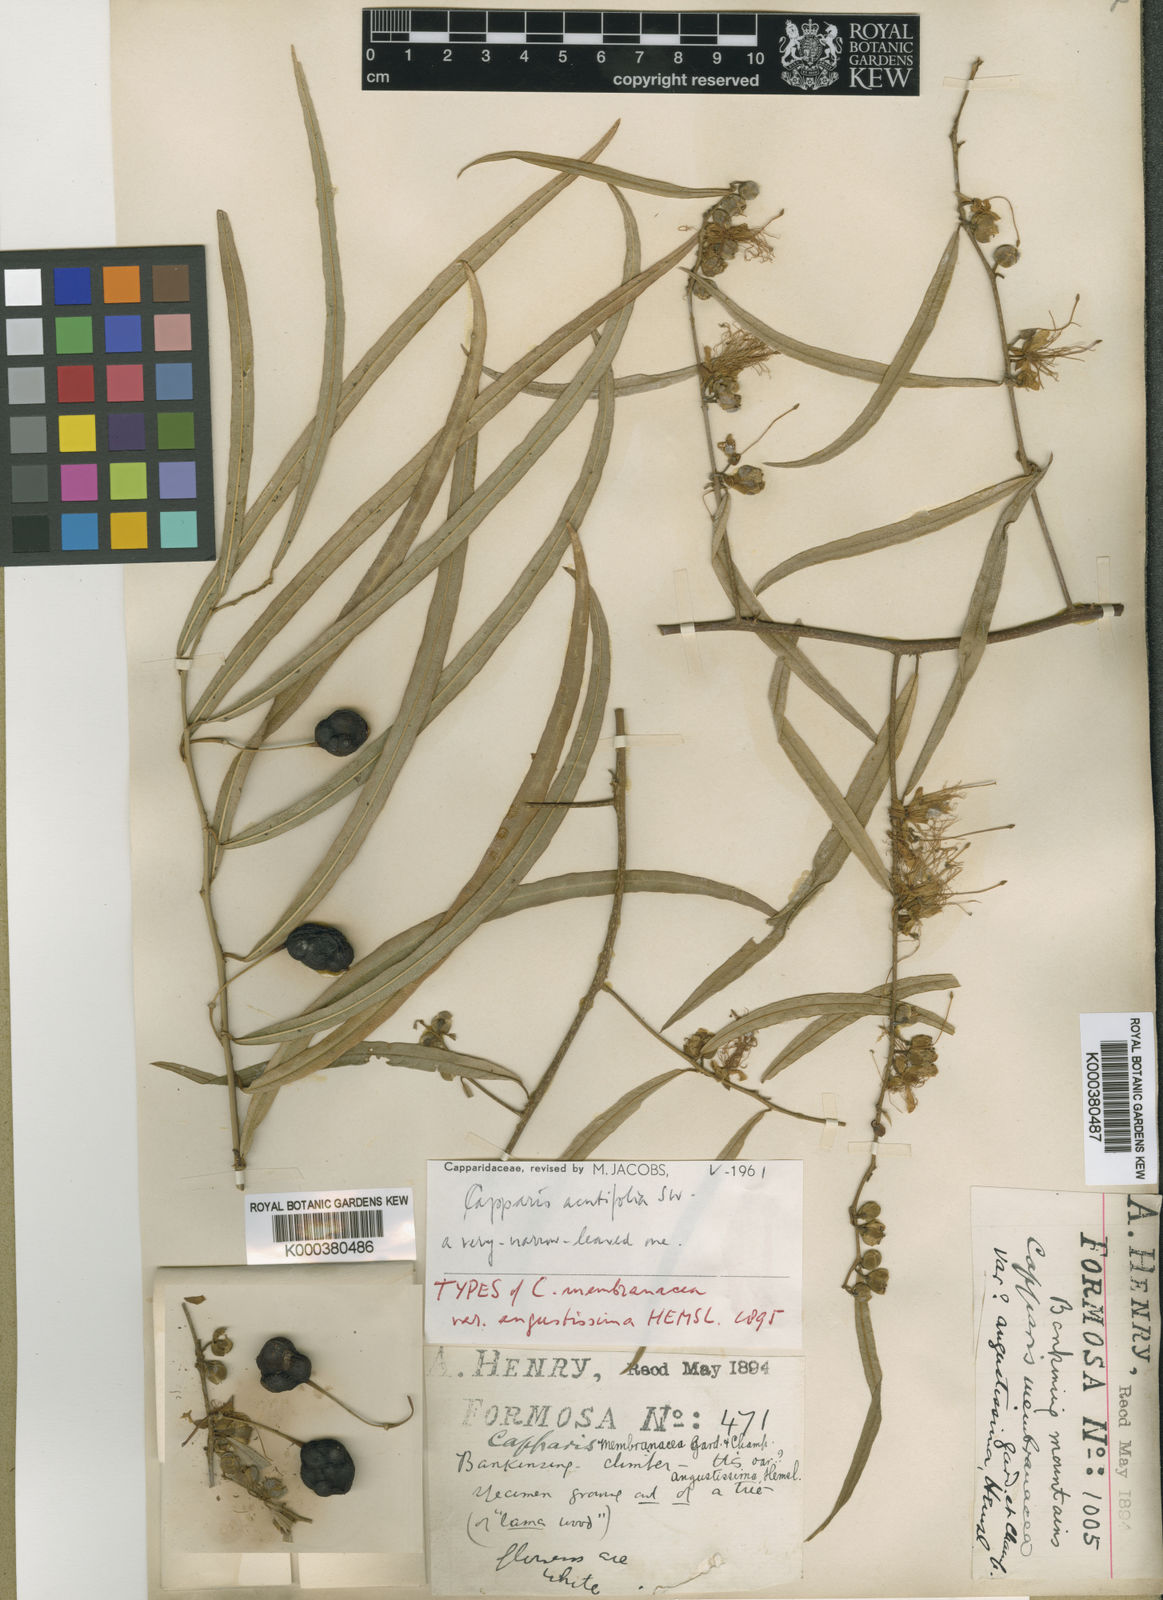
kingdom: Plantae
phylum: Tracheophyta
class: Magnoliopsida
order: Brassicales
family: Capparaceae
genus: Capparis
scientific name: Capparis acutifolia
